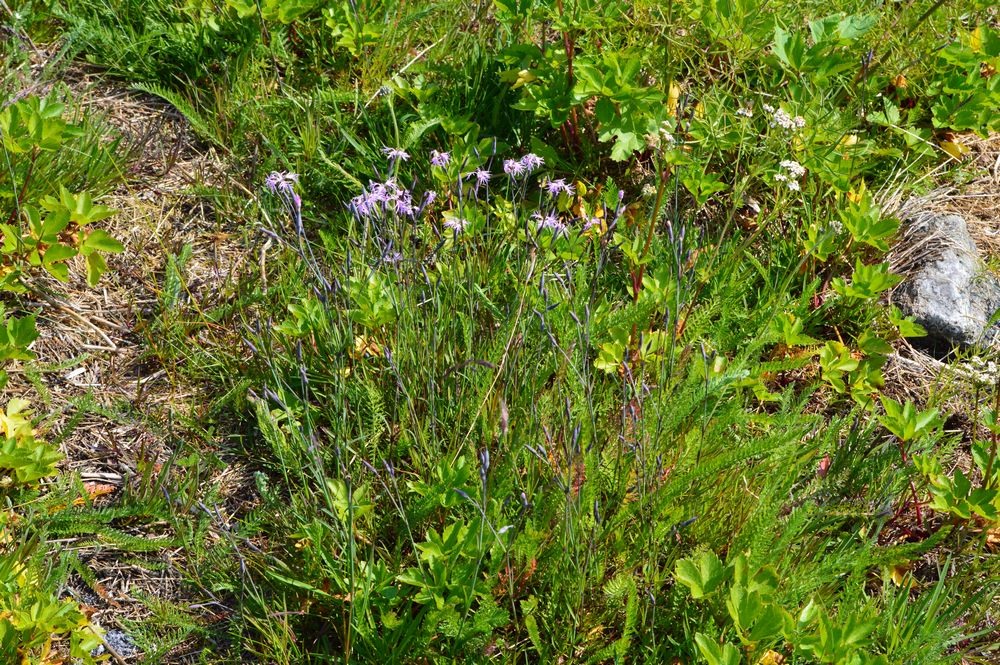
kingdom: Plantae
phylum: Tracheophyta
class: Magnoliopsida
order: Caryophyllales
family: Caryophyllaceae
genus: Dianthus
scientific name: Dianthus superbus
